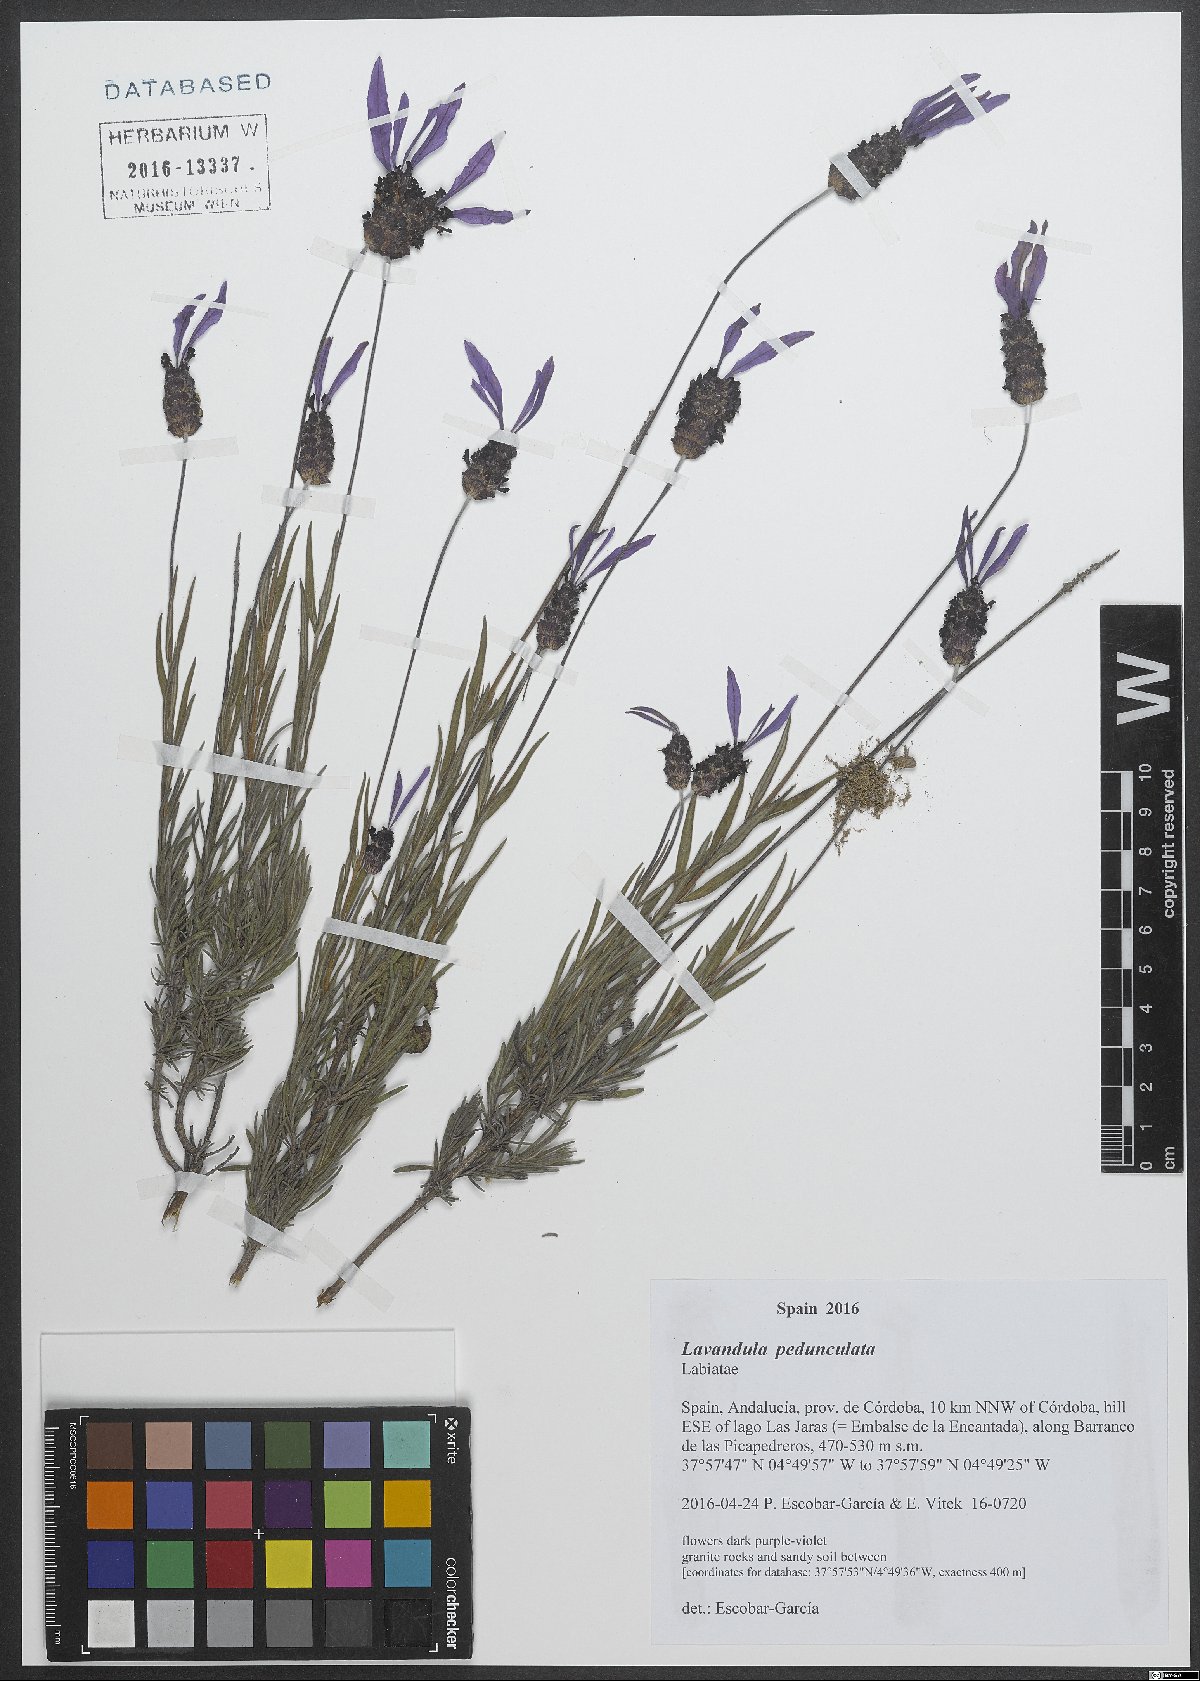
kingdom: Plantae
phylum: Tracheophyta
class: Magnoliopsida
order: Lamiales
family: Lamiaceae
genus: Lavandula
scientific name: Lavandula pedunculata
